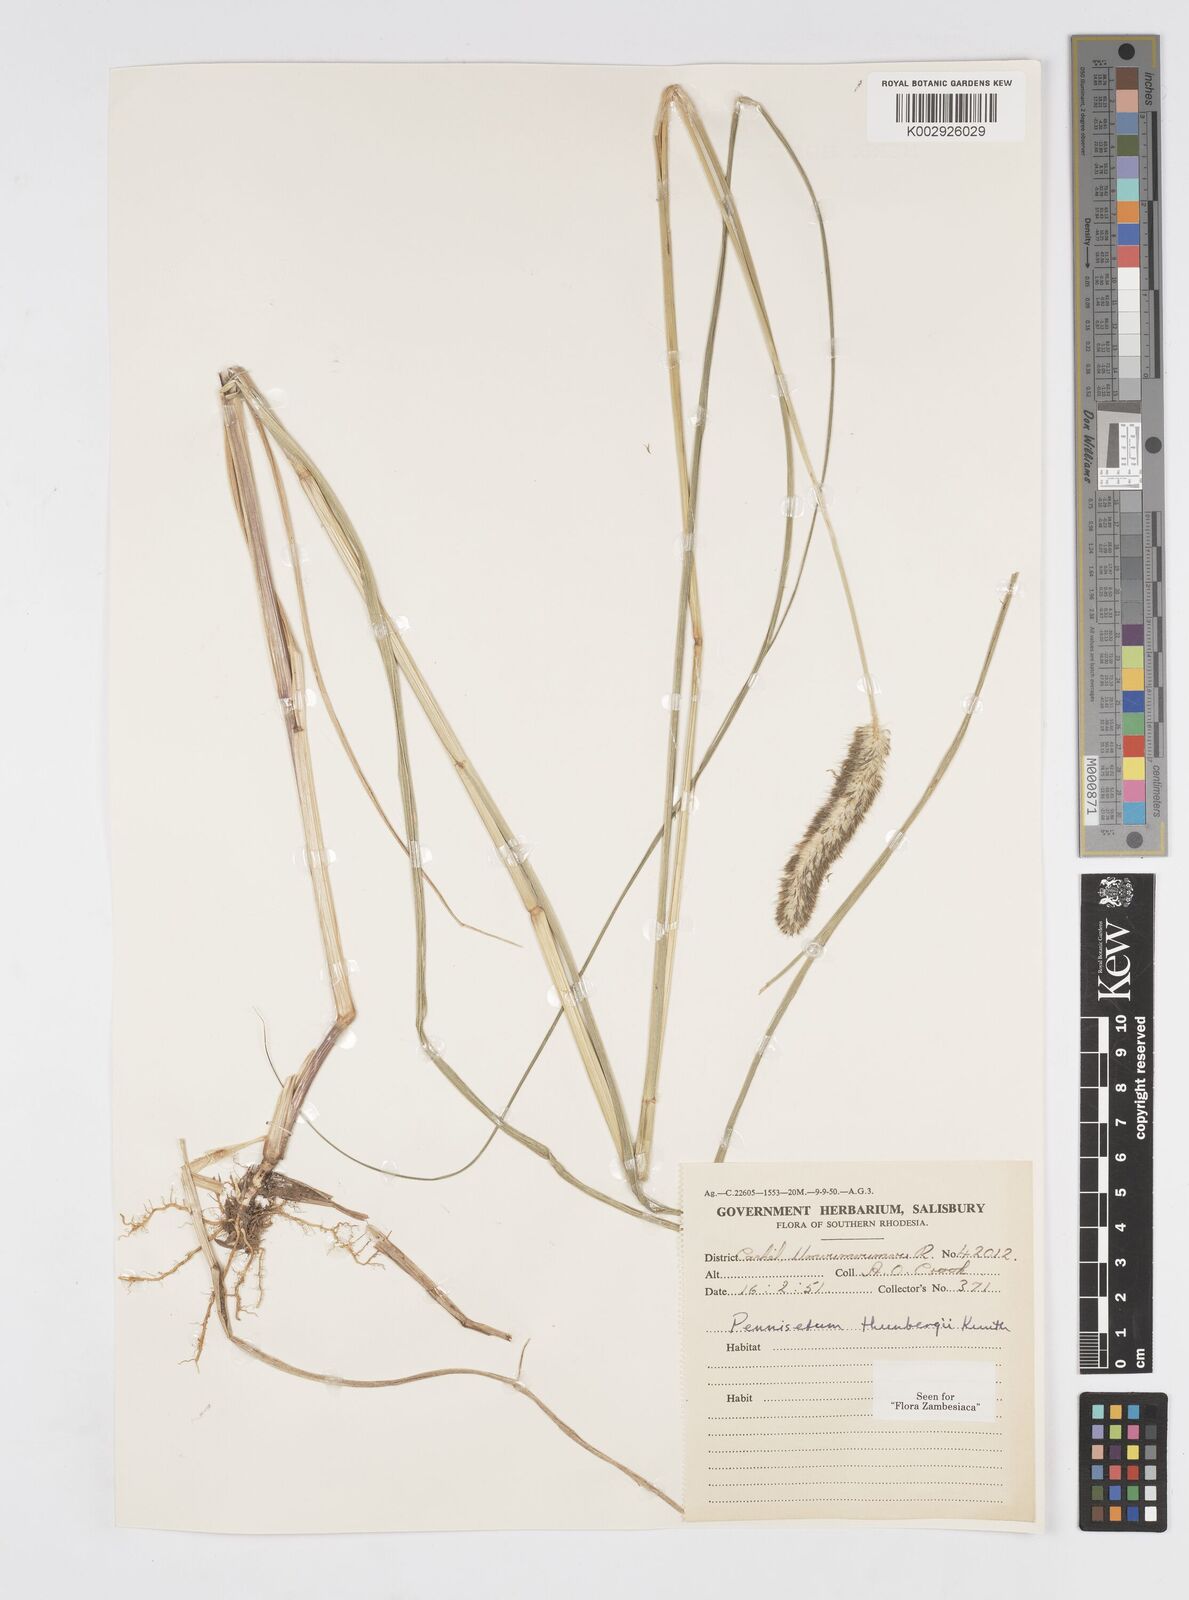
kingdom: Plantae
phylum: Tracheophyta
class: Liliopsida
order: Poales
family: Poaceae
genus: Cenchrus
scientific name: Cenchrus geniculatus
